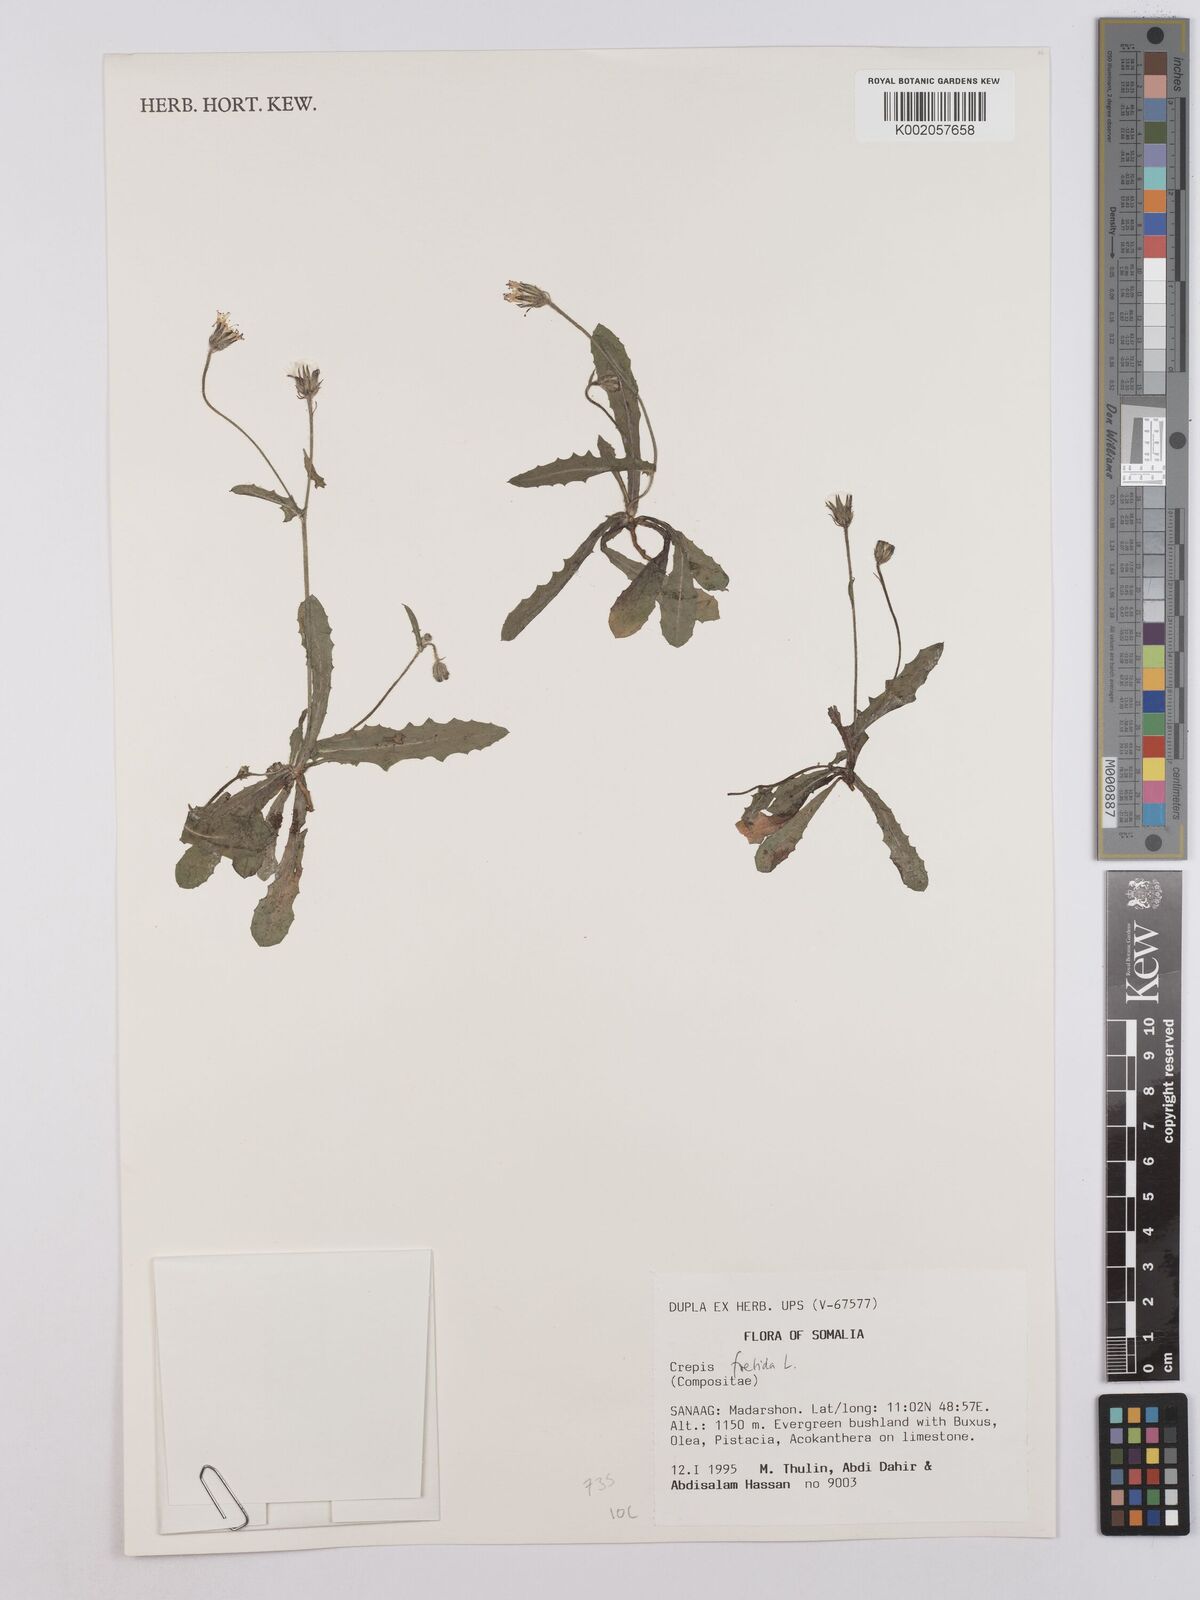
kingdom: Plantae
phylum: Tracheophyta
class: Magnoliopsida
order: Asterales
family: Asteraceae
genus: Crepis
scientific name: Crepis foetida
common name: Stinking hawk's-beard
